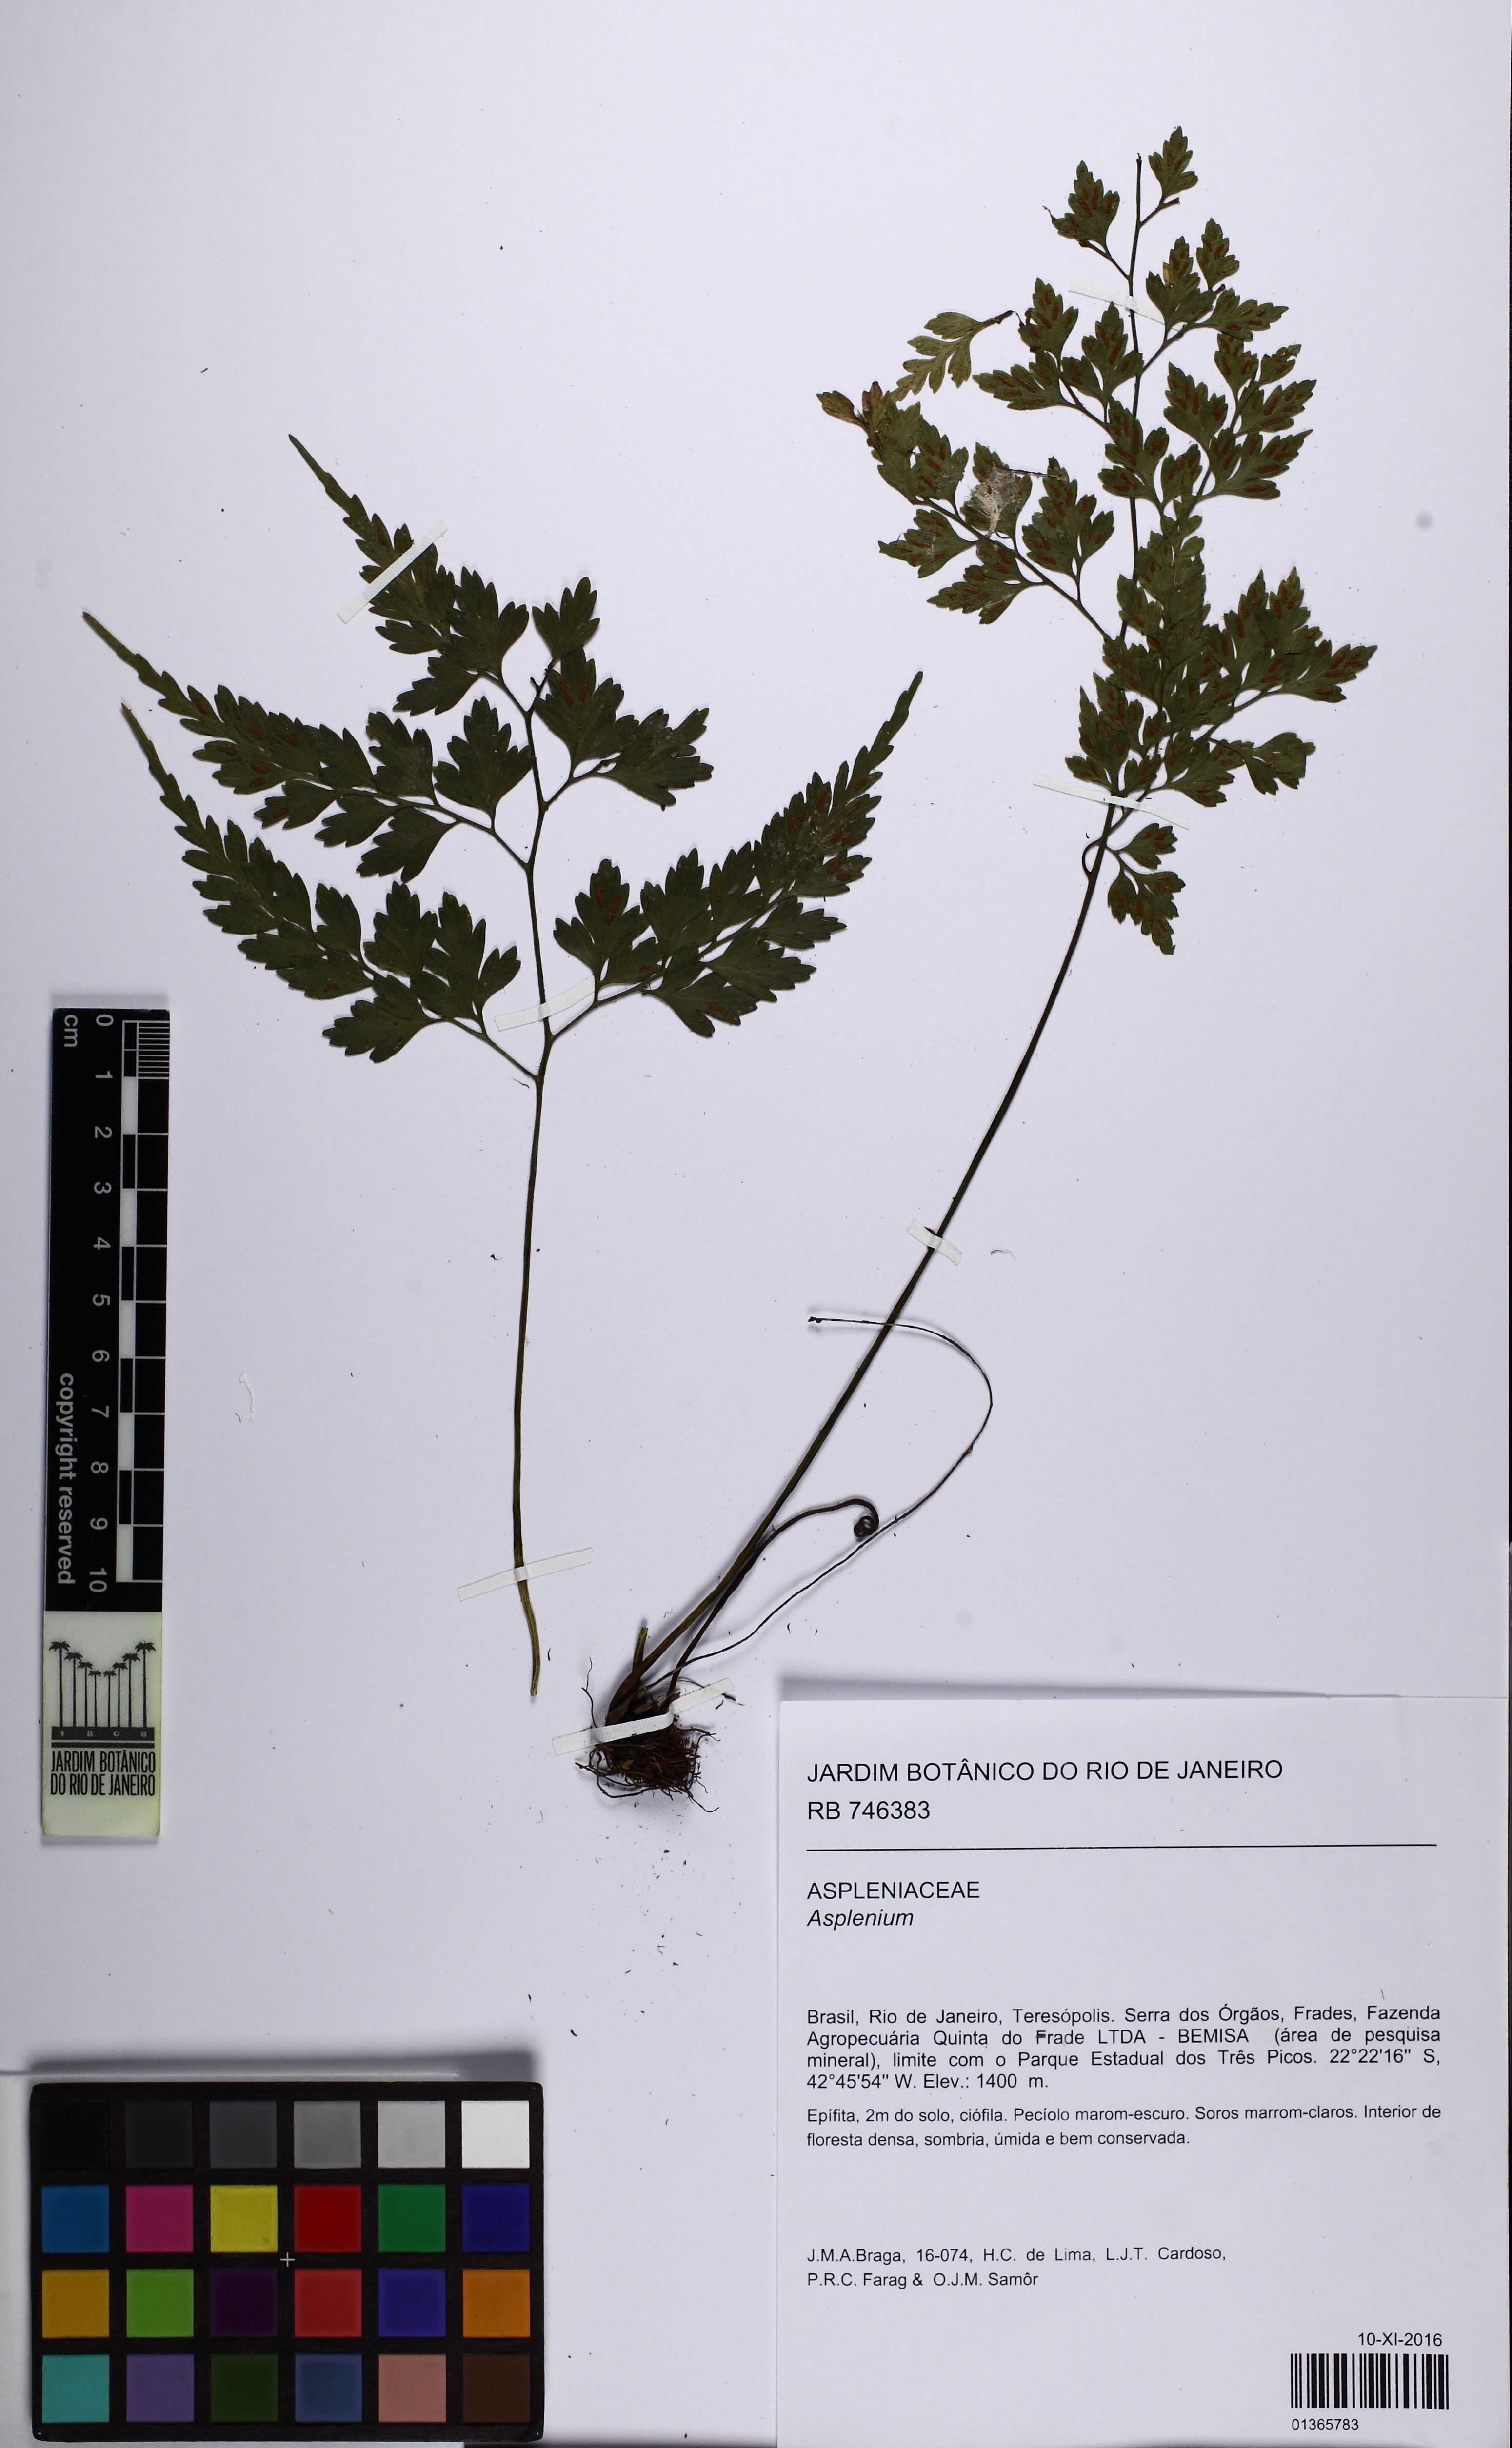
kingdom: Plantae
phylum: Tracheophyta
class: Polypodiopsida
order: Polypodiales
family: Aspleniaceae
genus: Asplenium
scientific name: Asplenium scandicinum
